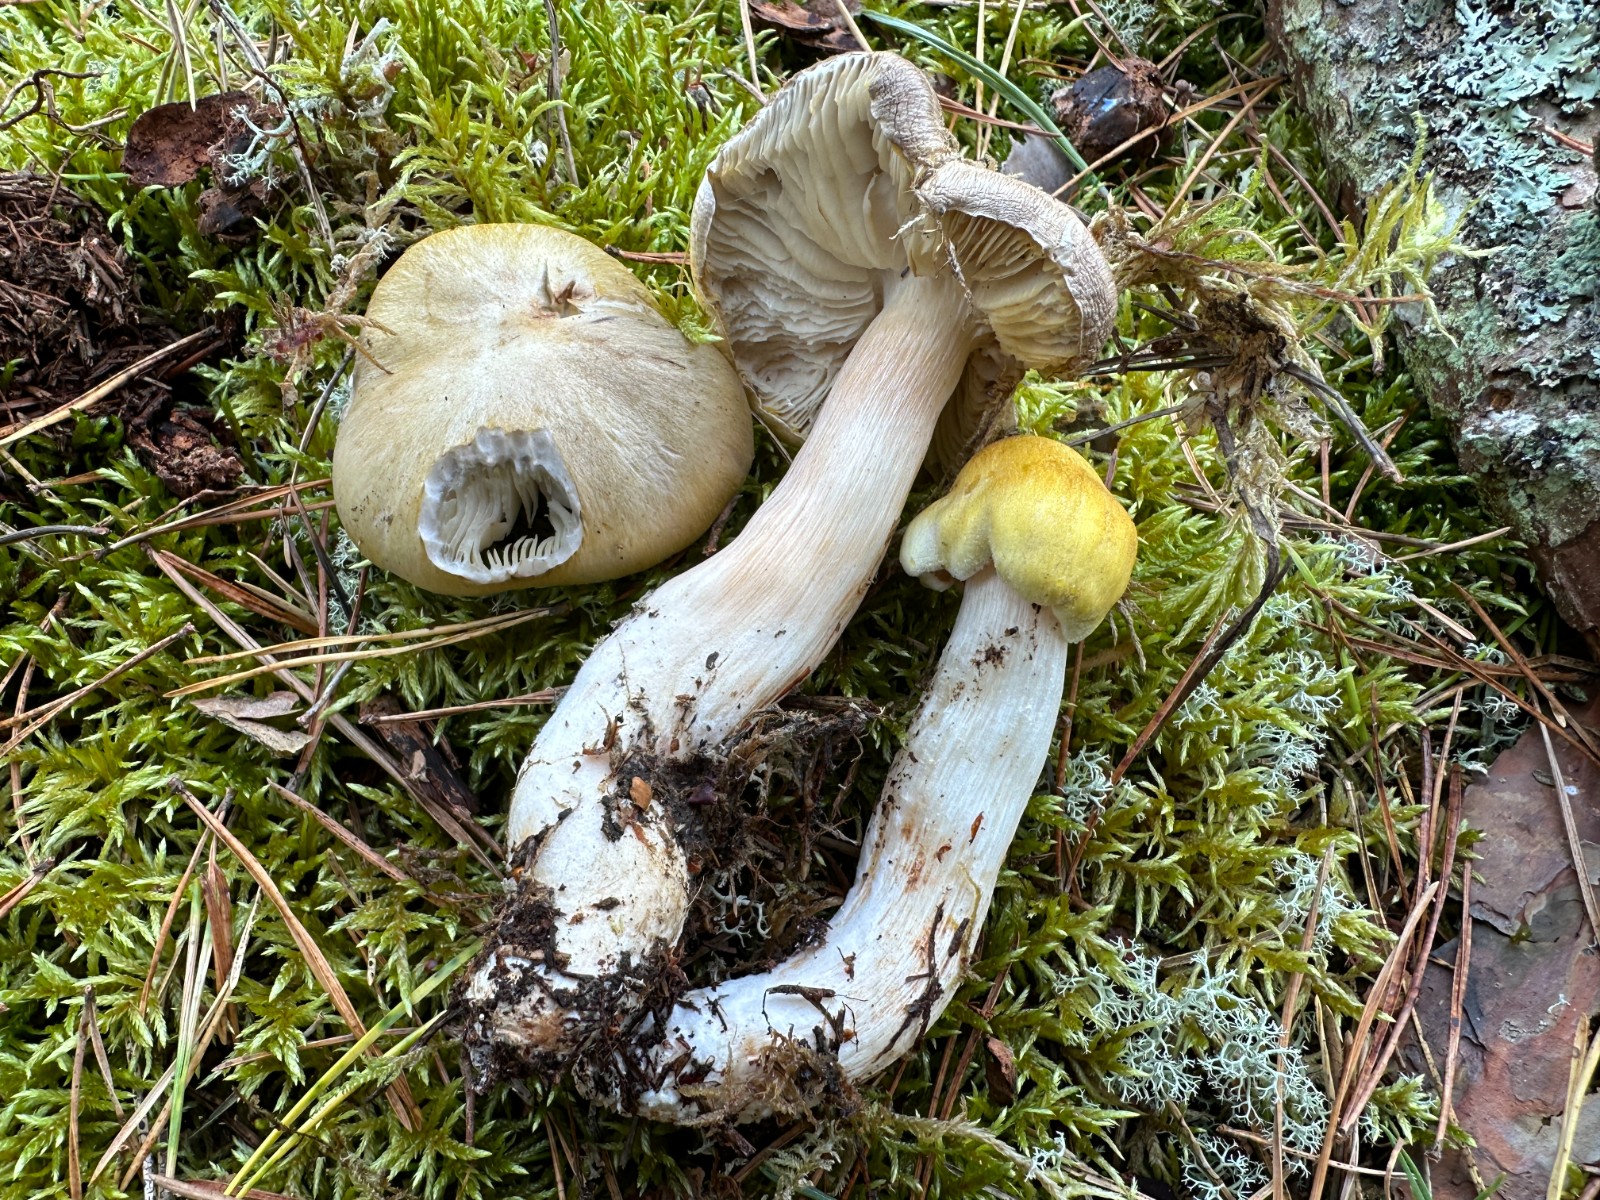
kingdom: Fungi
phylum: Basidiomycota
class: Agaricomycetes
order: Agaricales
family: Tricholomataceae
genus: Tricholoma
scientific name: Tricholoma arvernense
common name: kantet ridderhat
